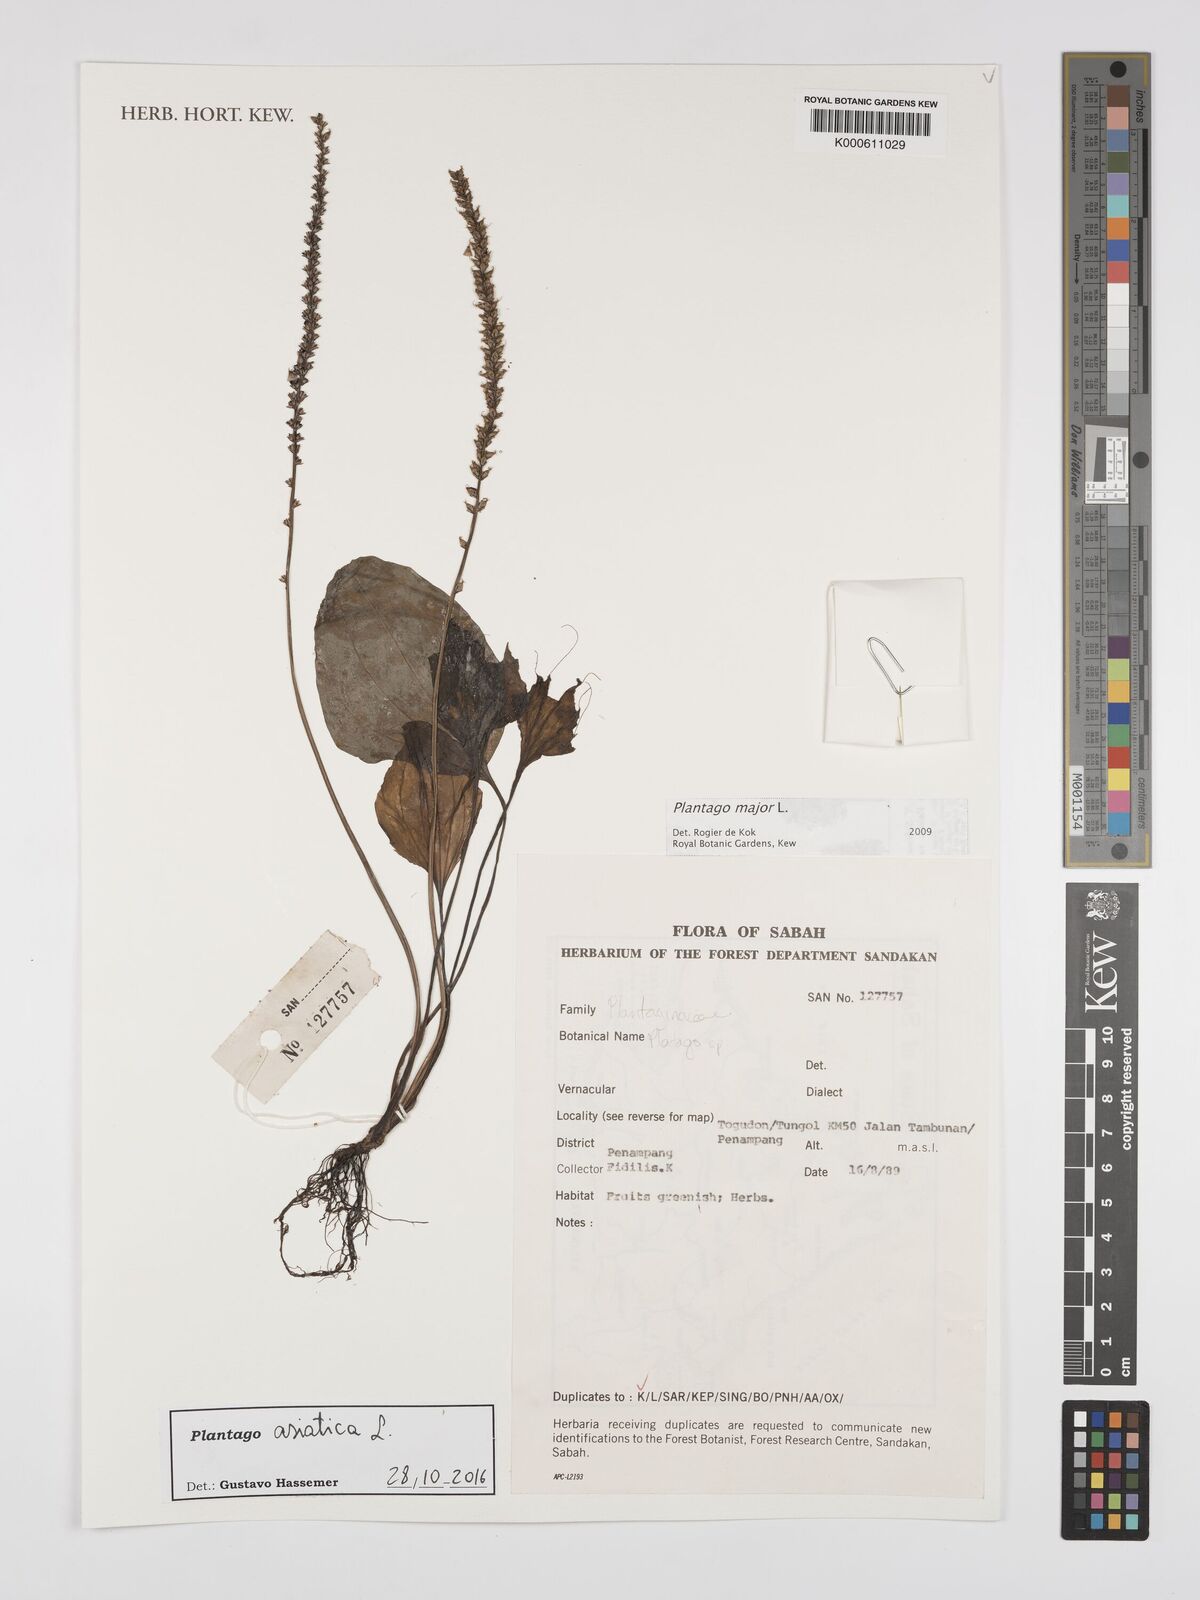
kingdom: Plantae
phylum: Tracheophyta
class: Magnoliopsida
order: Lamiales
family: Plantaginaceae
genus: Plantago
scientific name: Plantago asiatica
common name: Psyllium
